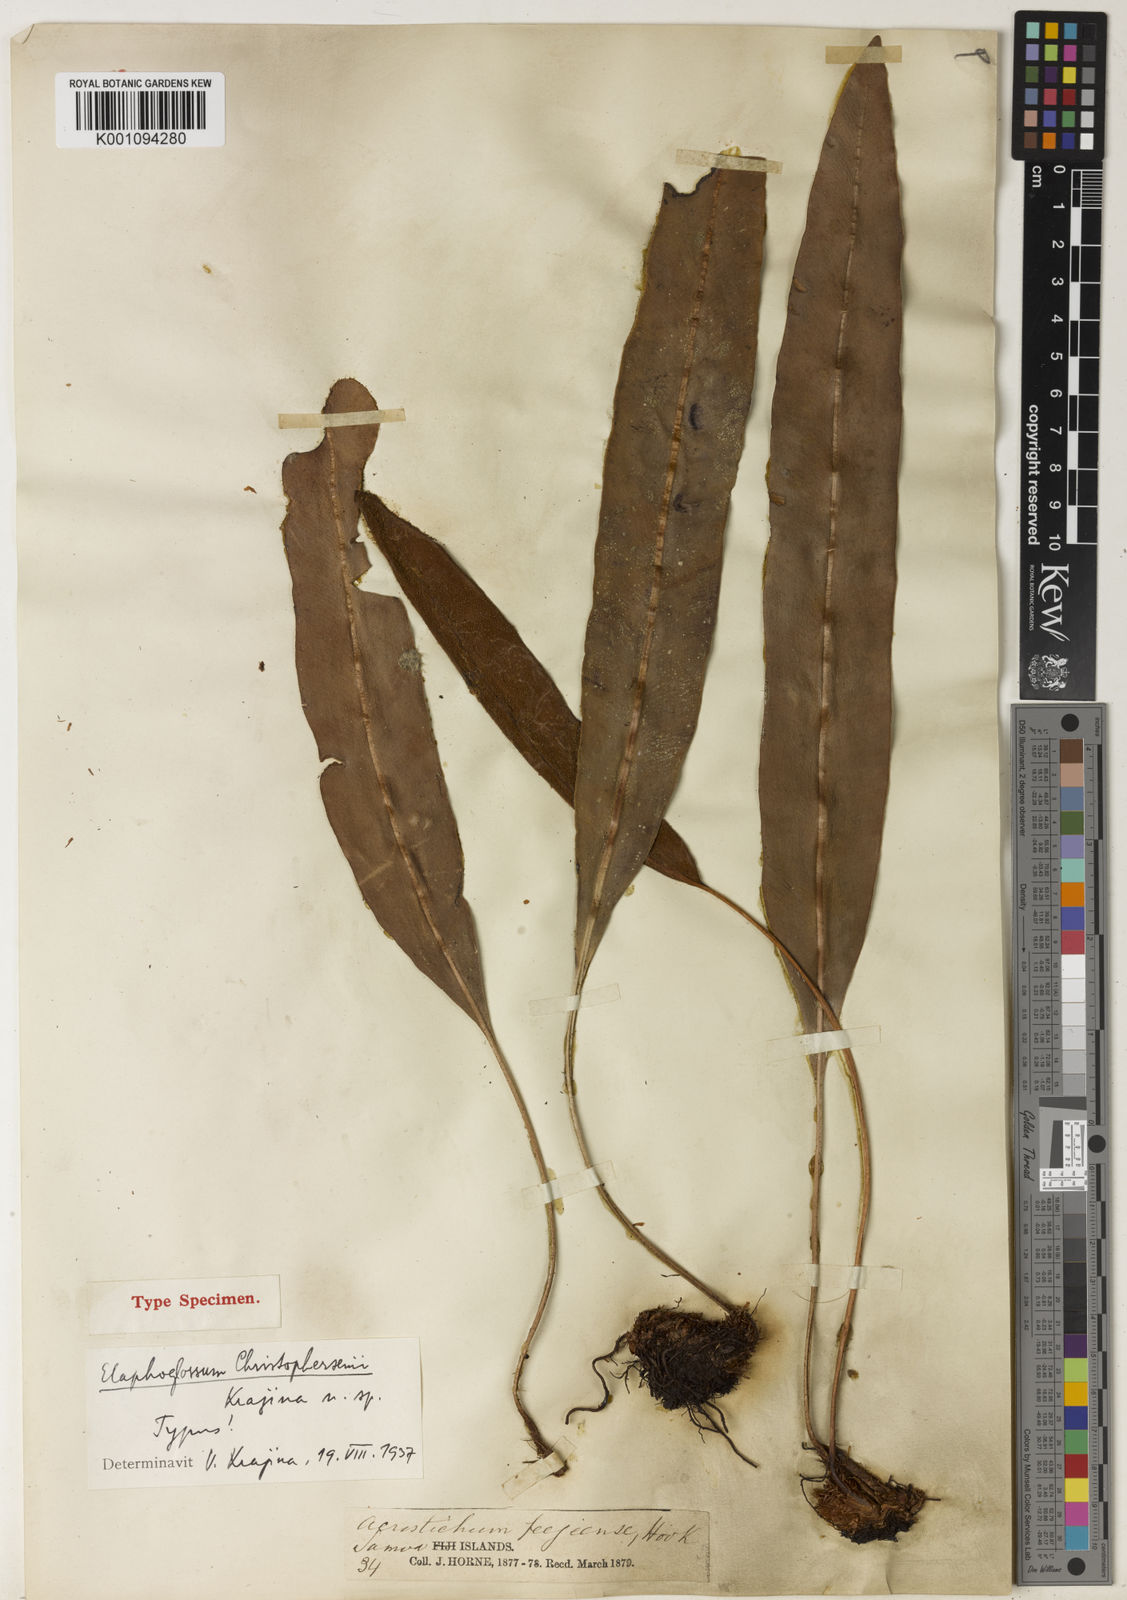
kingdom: Plantae
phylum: Tracheophyta
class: Polypodiopsida
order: Polypodiales
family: Dryopteridaceae
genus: Elaphoglossum
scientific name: Elaphoglossum callifolium
